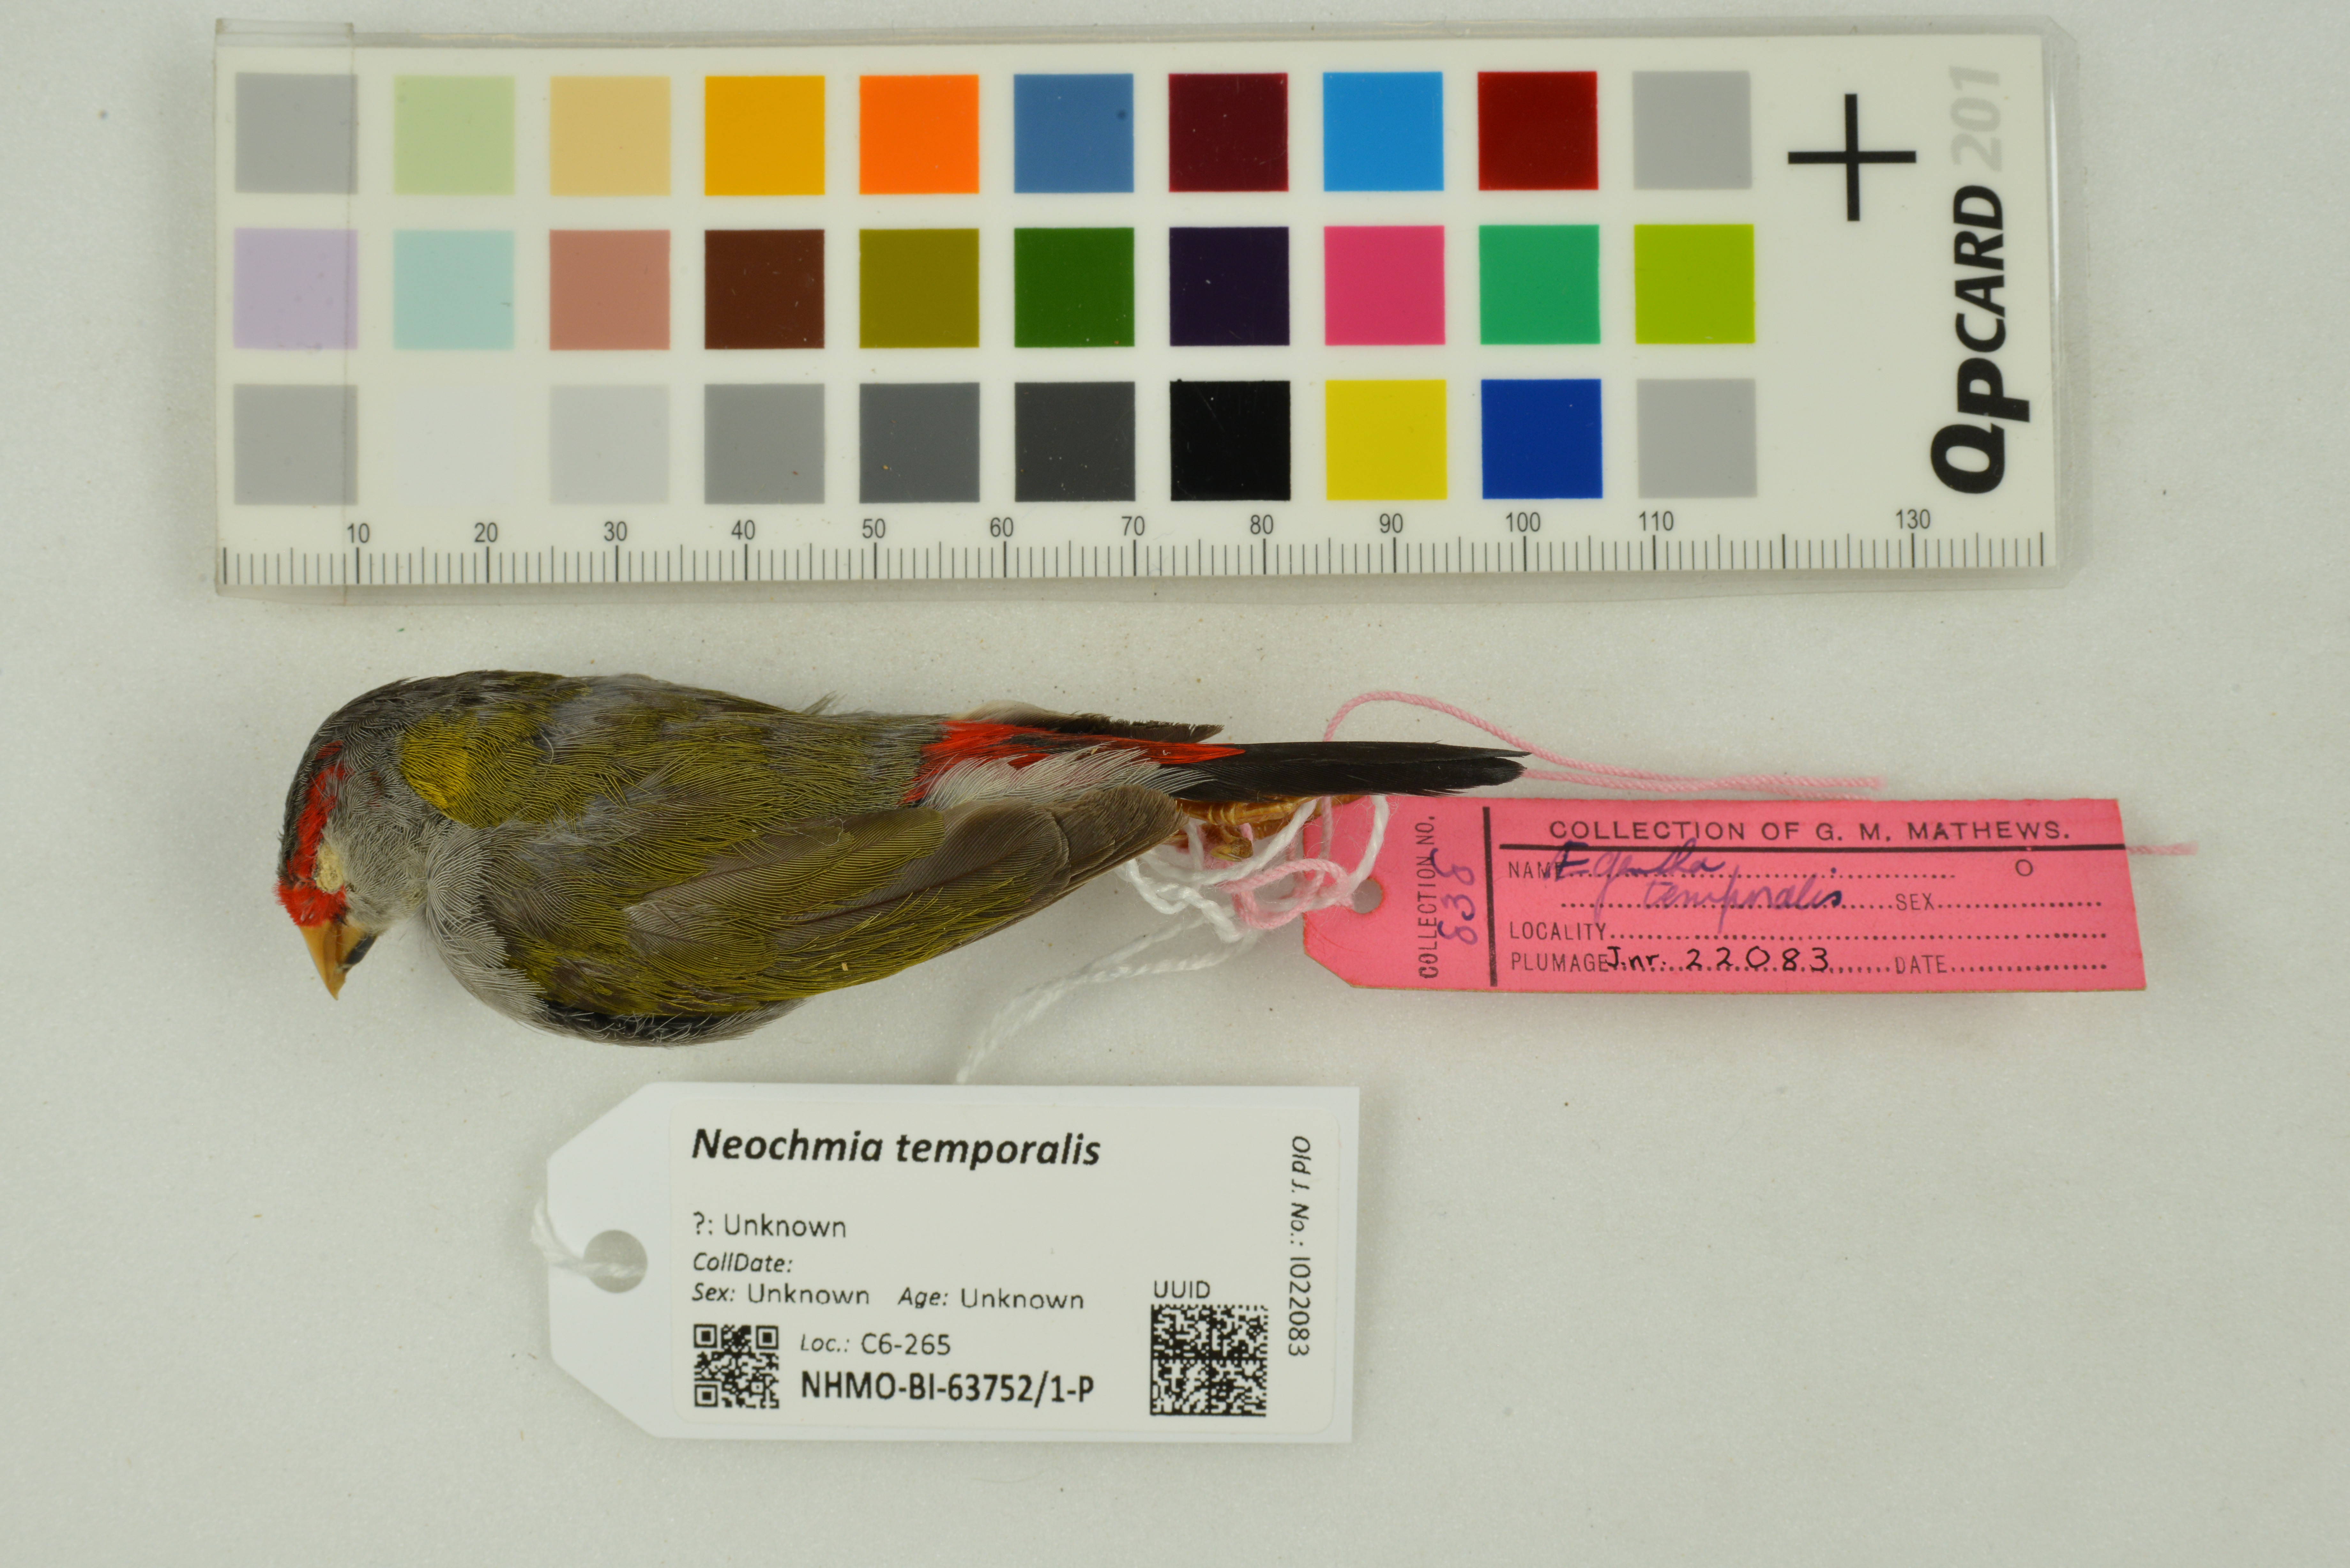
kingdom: Animalia
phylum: Chordata
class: Aves
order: Passeriformes
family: Estrildidae
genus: Neochmia
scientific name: Neochmia temporalis
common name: Red-browed finch
